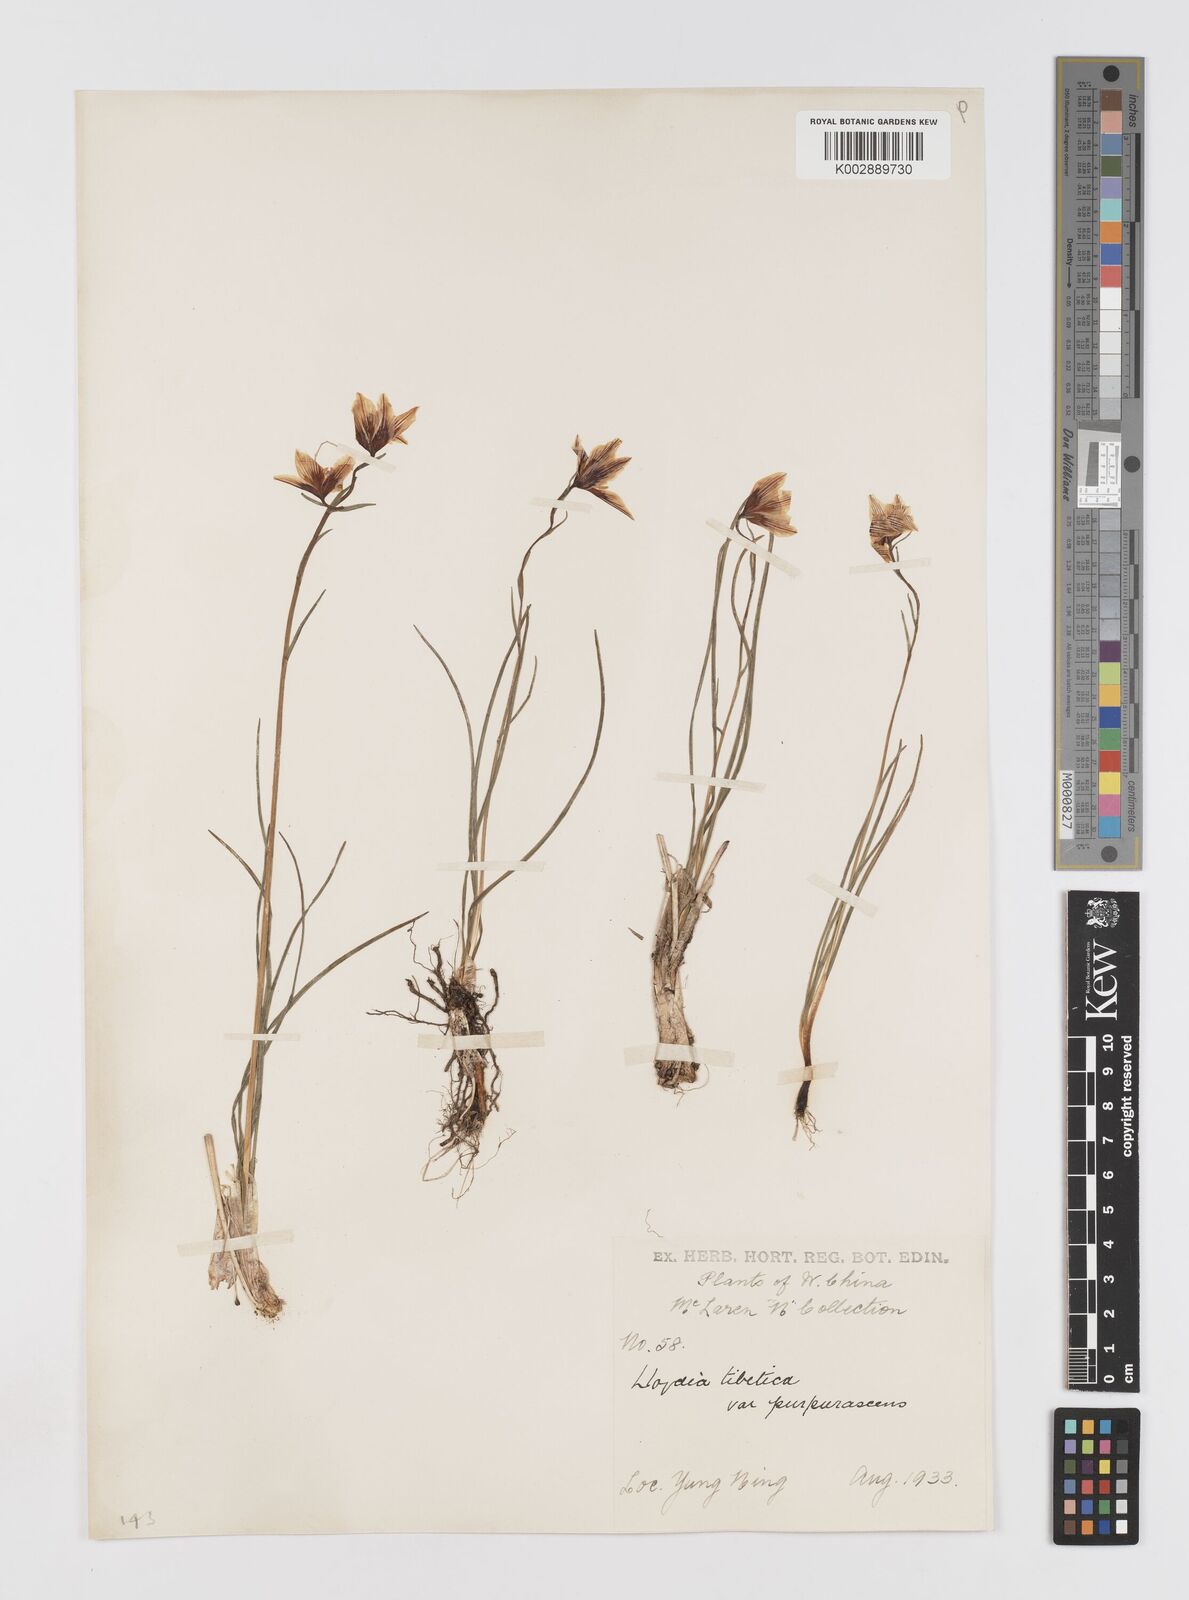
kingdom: Plantae
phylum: Tracheophyta
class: Liliopsida
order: Liliales
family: Liliaceae
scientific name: Liliaceae
